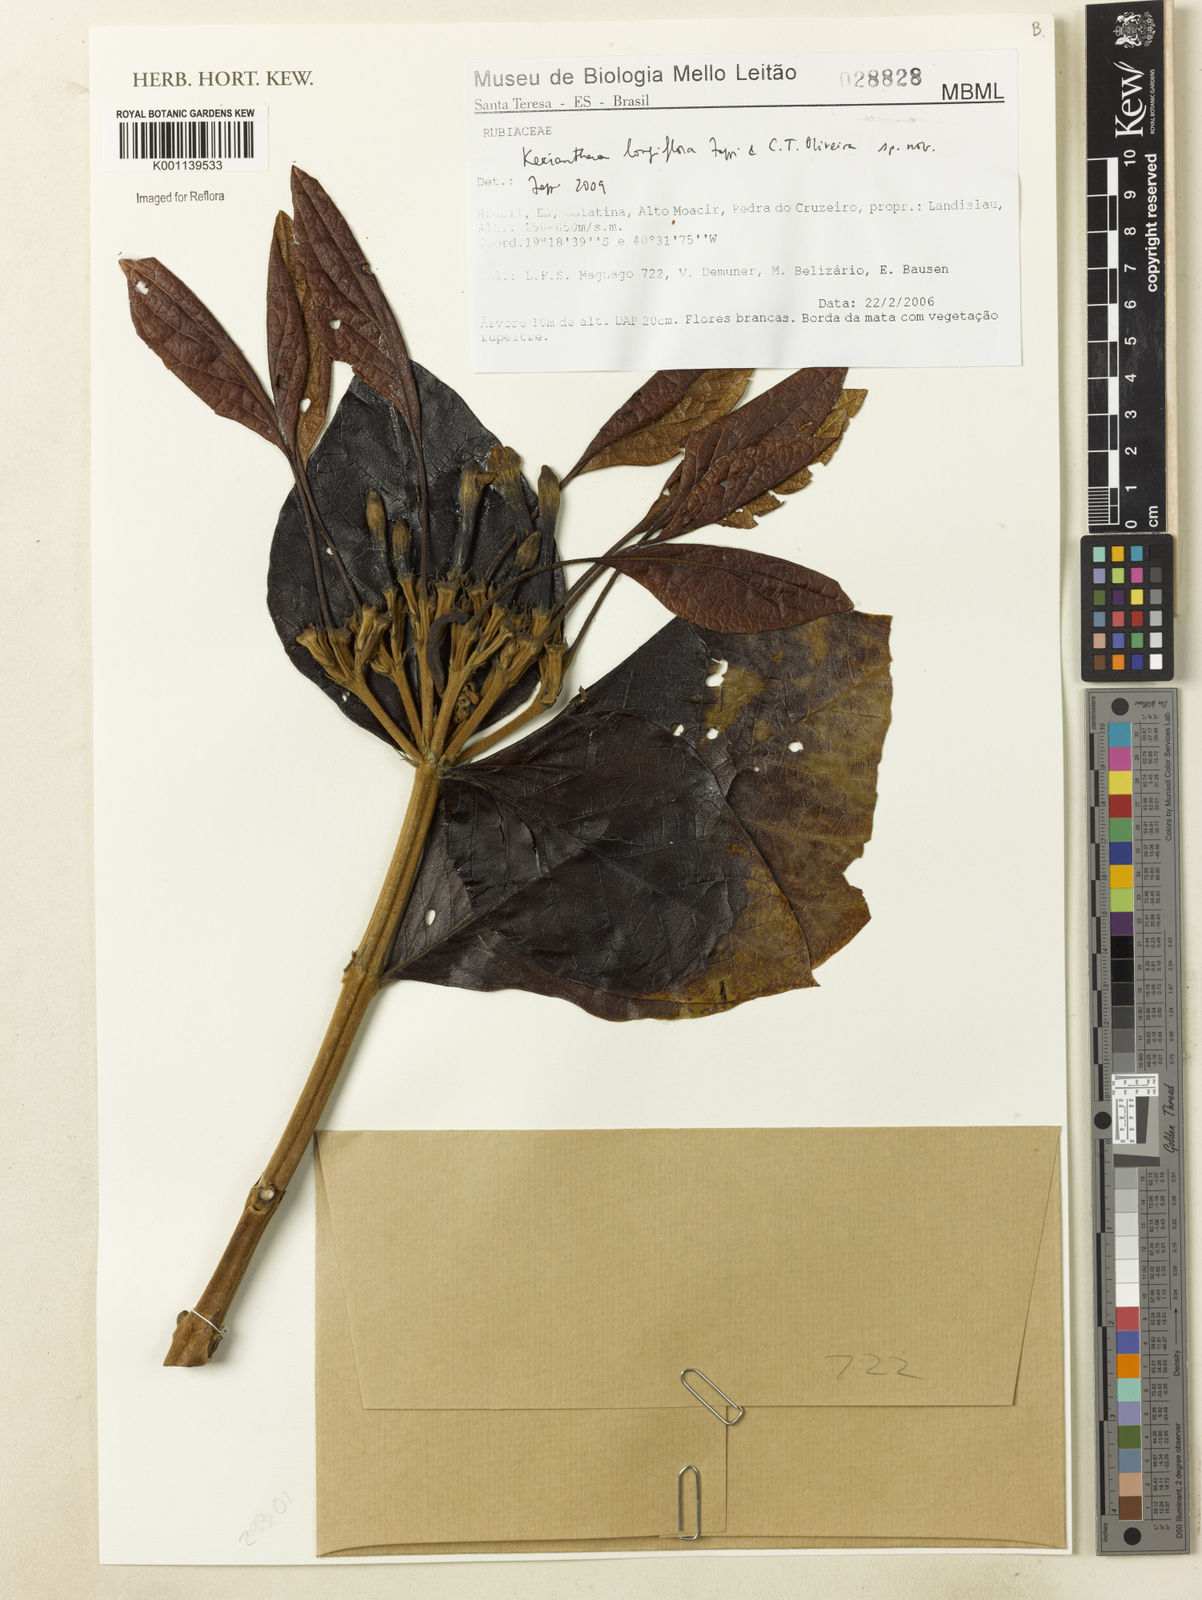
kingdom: Plantae
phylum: Tracheophyta
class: Magnoliopsida
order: Gentianales
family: Rubiaceae
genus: Kerianthera
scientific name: Kerianthera longiflora
